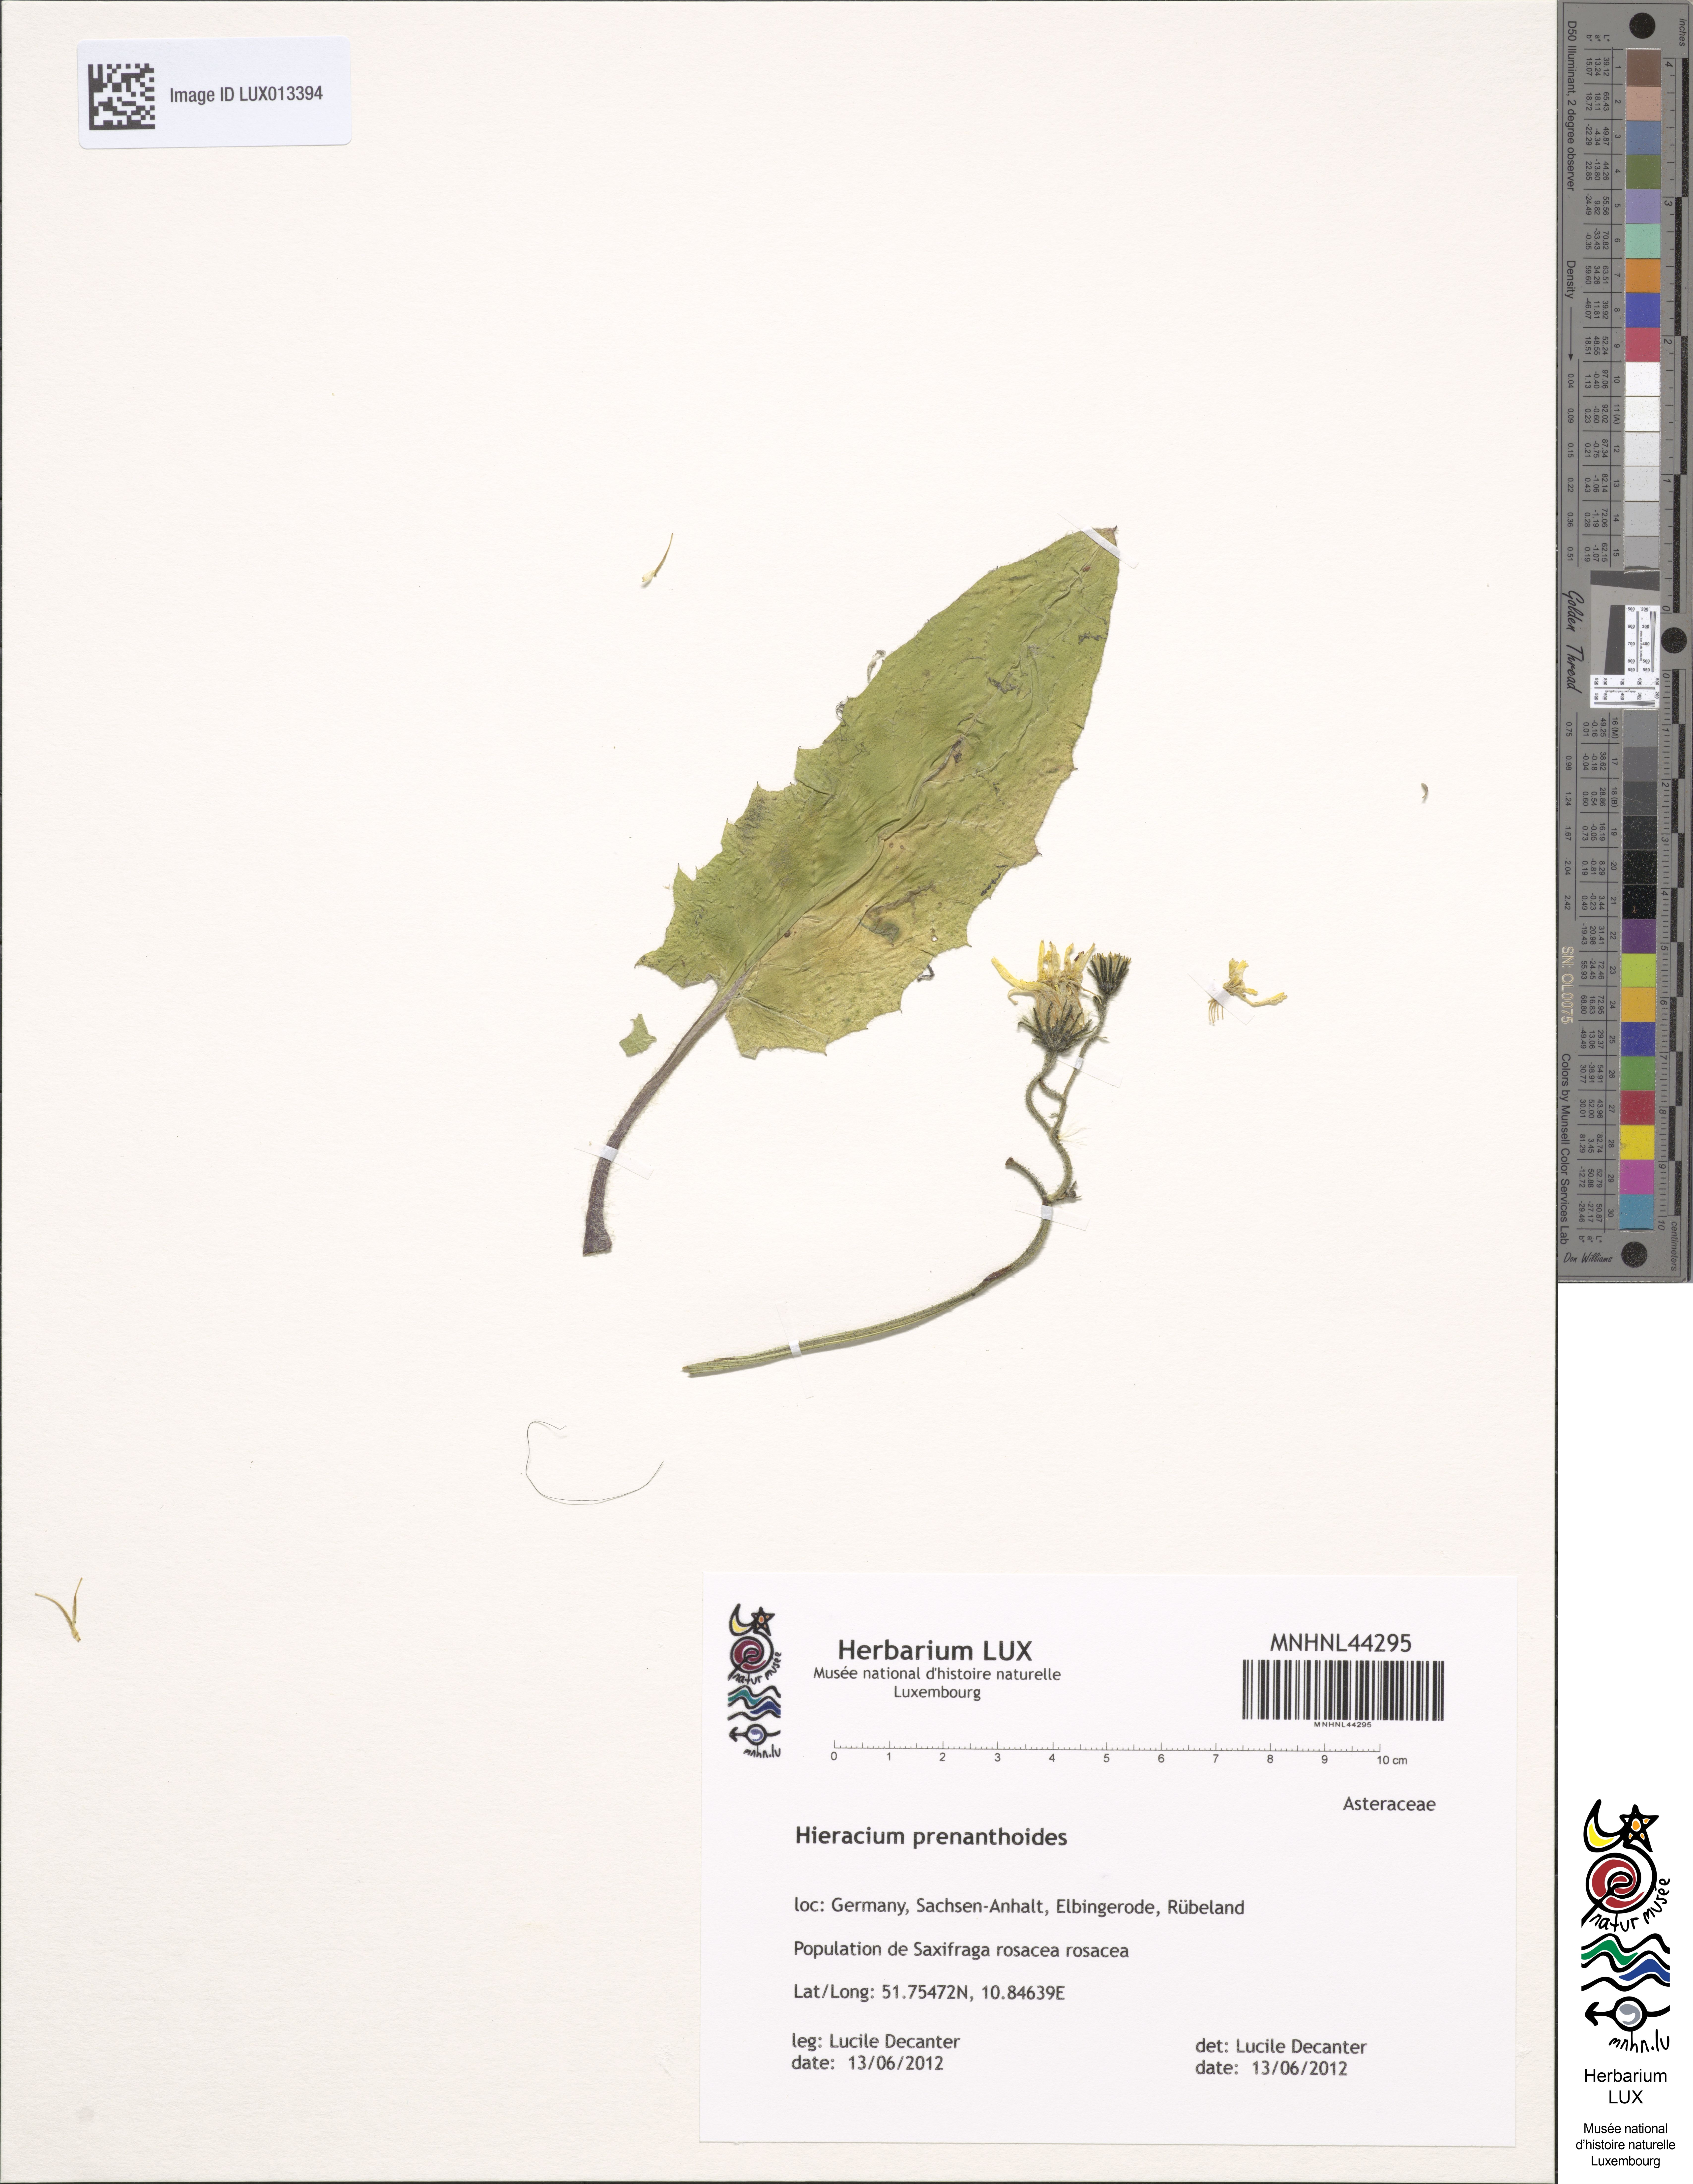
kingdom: Plantae
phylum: Tracheophyta
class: Magnoliopsida
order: Asterales
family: Asteraceae
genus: Hieracium
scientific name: Hieracium prenanthoides
